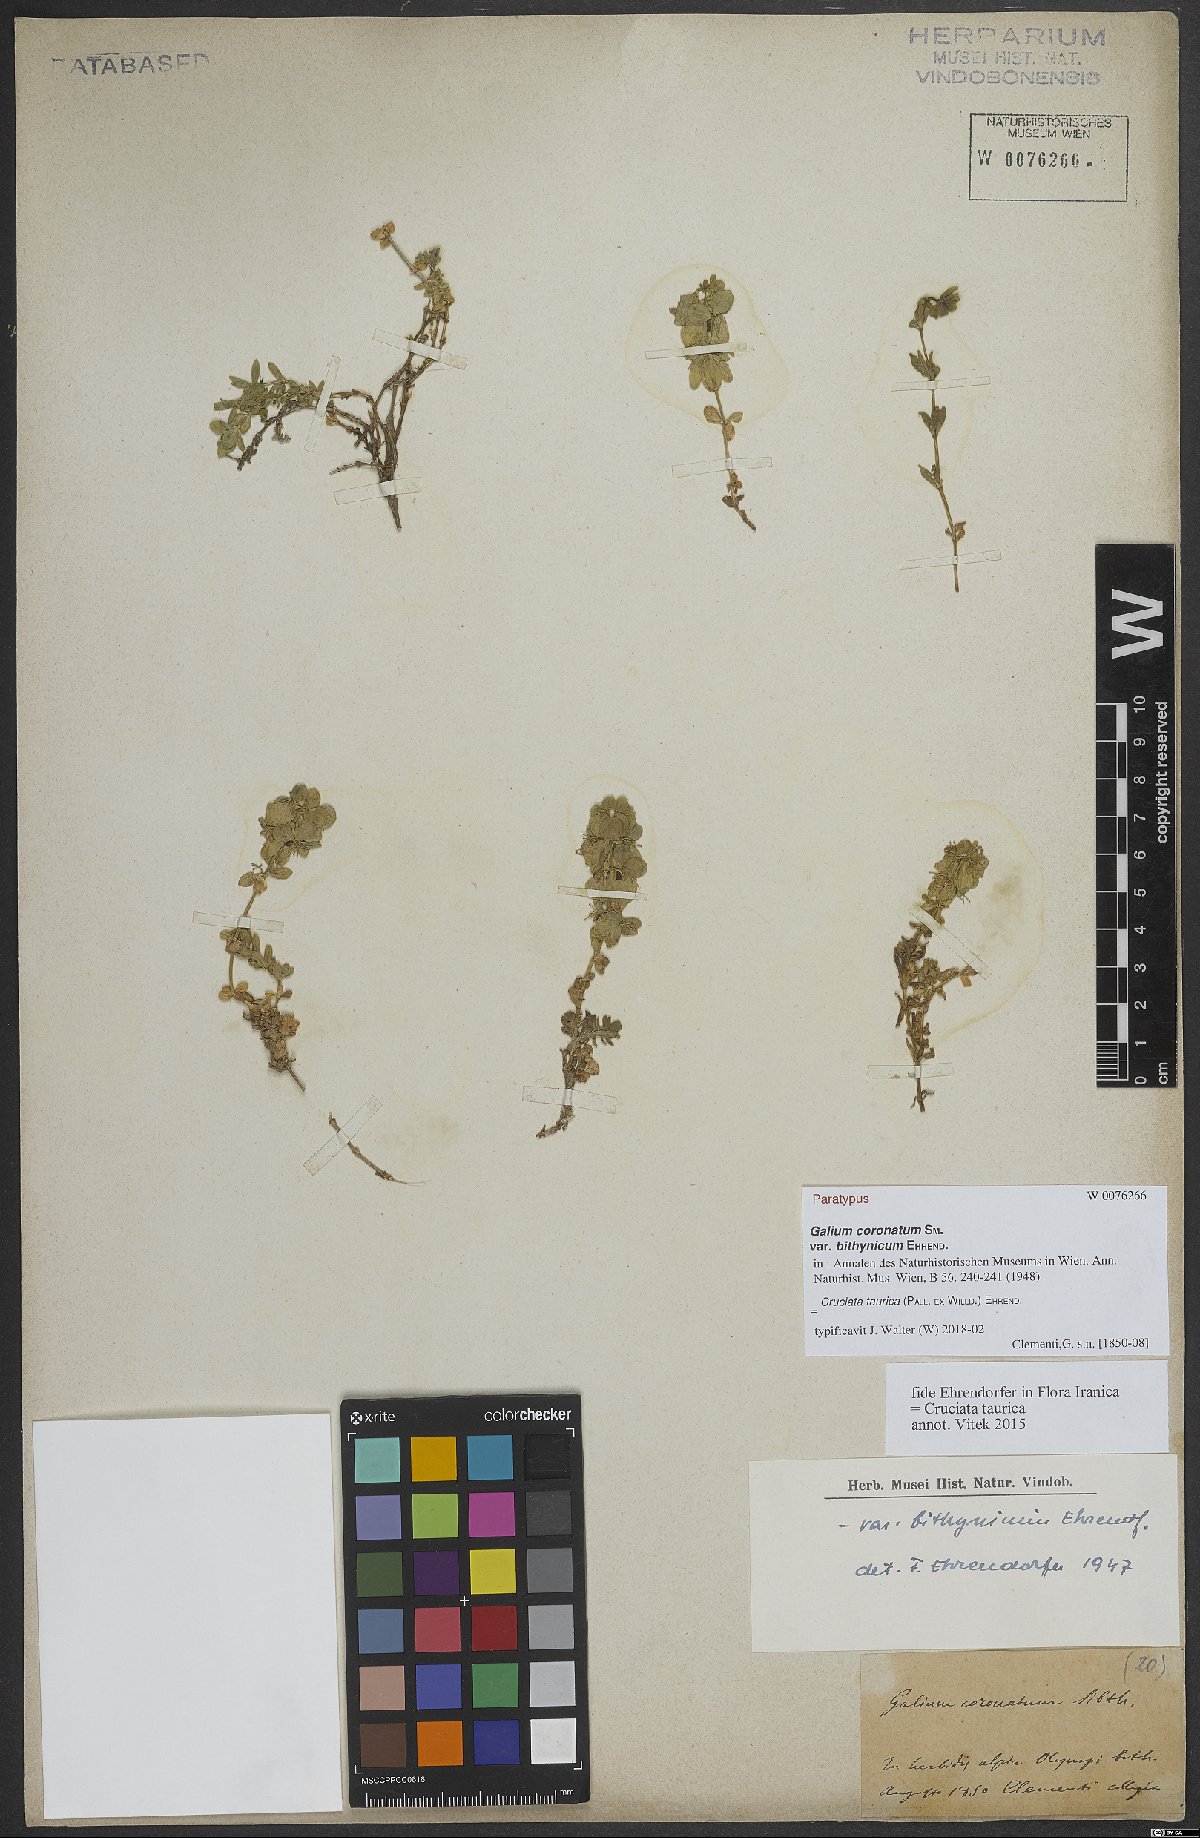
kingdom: Plantae
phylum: Tracheophyta
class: Magnoliopsida
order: Gentianales
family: Rubiaceae
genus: Cruciata
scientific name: Cruciata taurica
